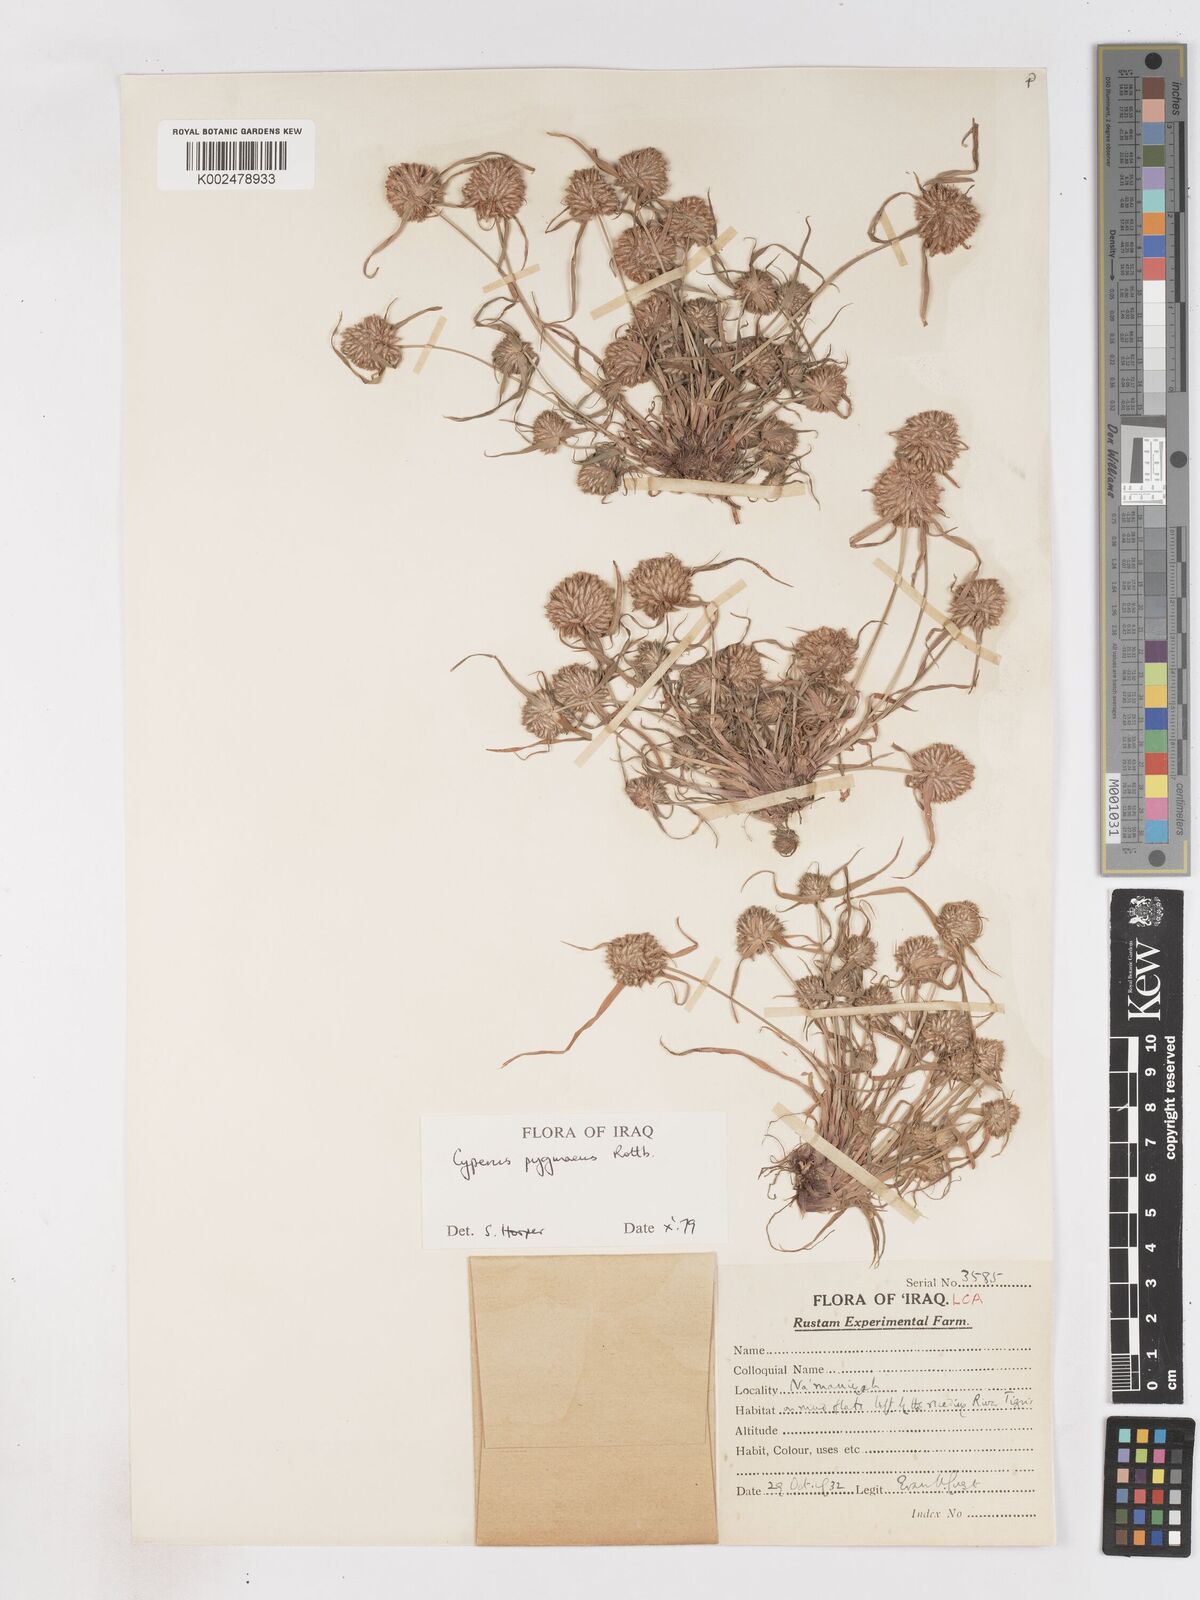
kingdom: Plantae
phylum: Tracheophyta
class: Liliopsida
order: Poales
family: Cyperaceae
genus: Cyperus
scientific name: Cyperus michelianus
